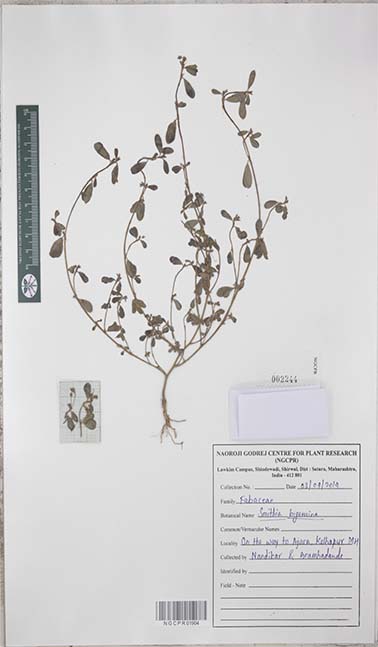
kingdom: Plantae
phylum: Tracheophyta
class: Magnoliopsida
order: Fabales
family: Fabaceae
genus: Smithia
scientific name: Smithia bigemina
